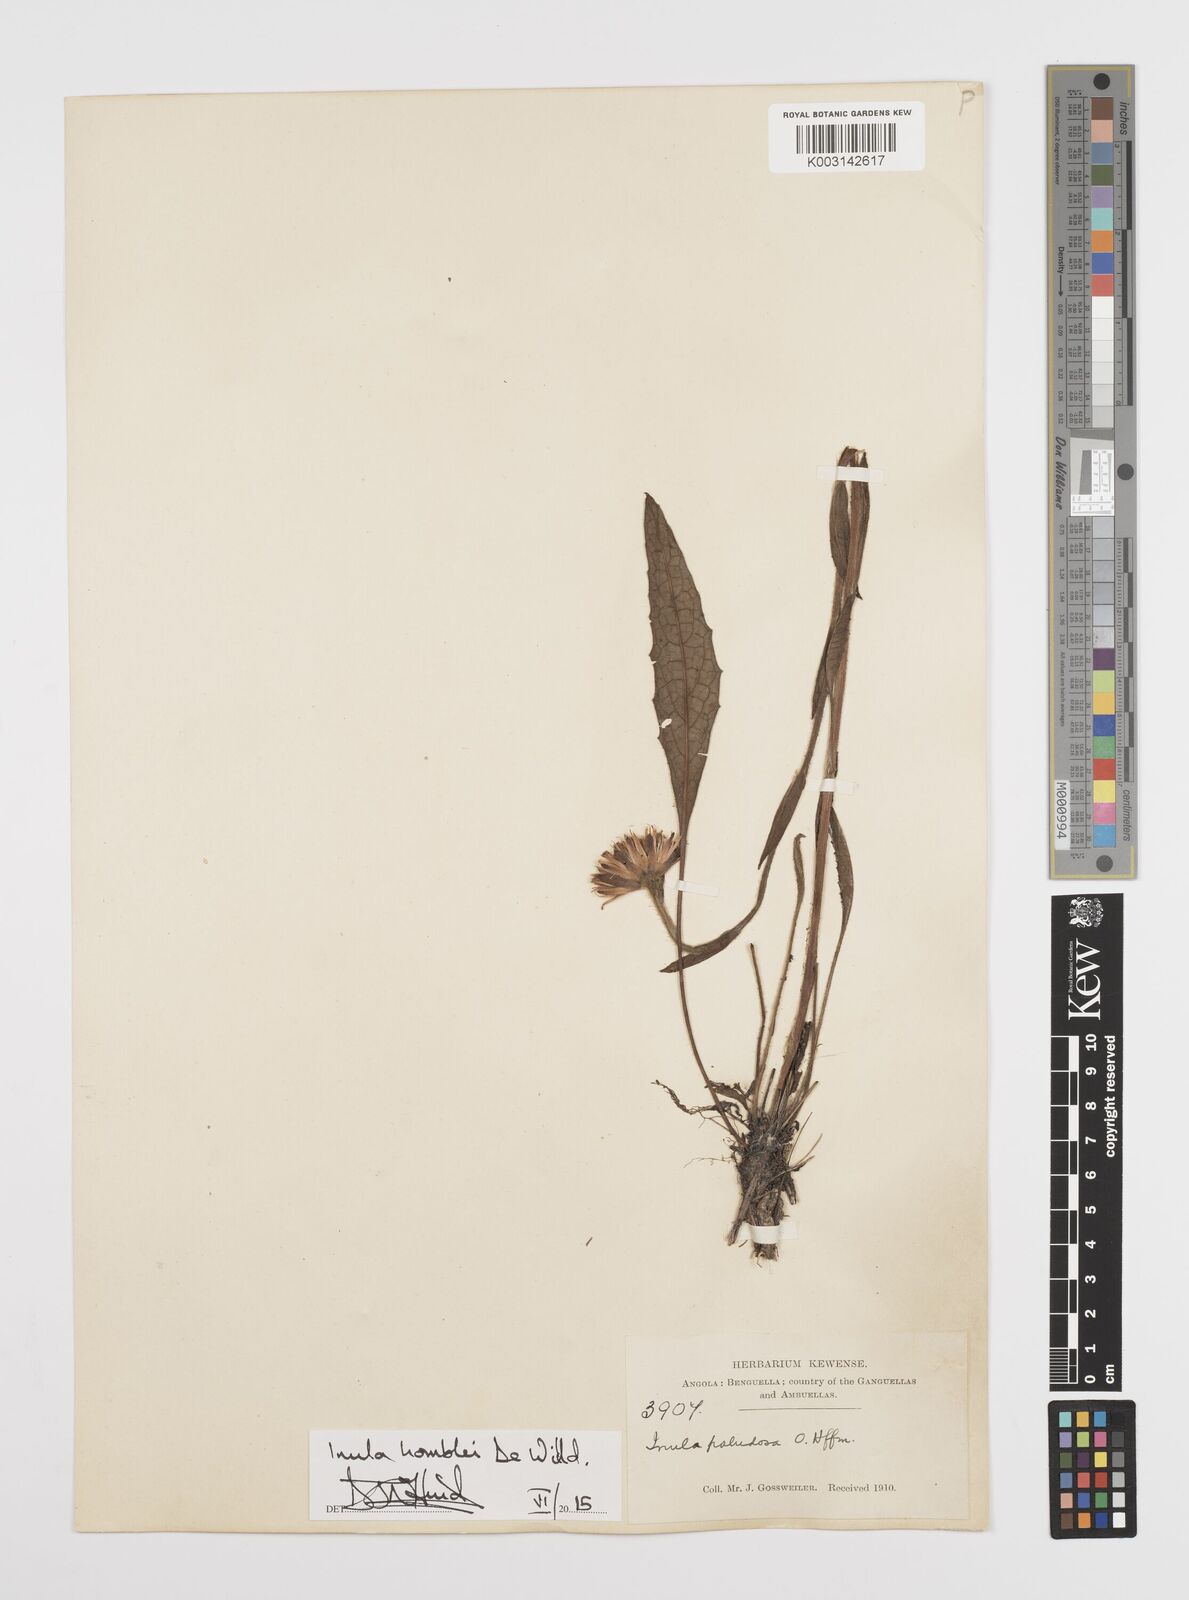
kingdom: Plantae
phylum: Tracheophyta
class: Magnoliopsida
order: Asterales
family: Asteraceae
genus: Inula
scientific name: Inula paludosa
